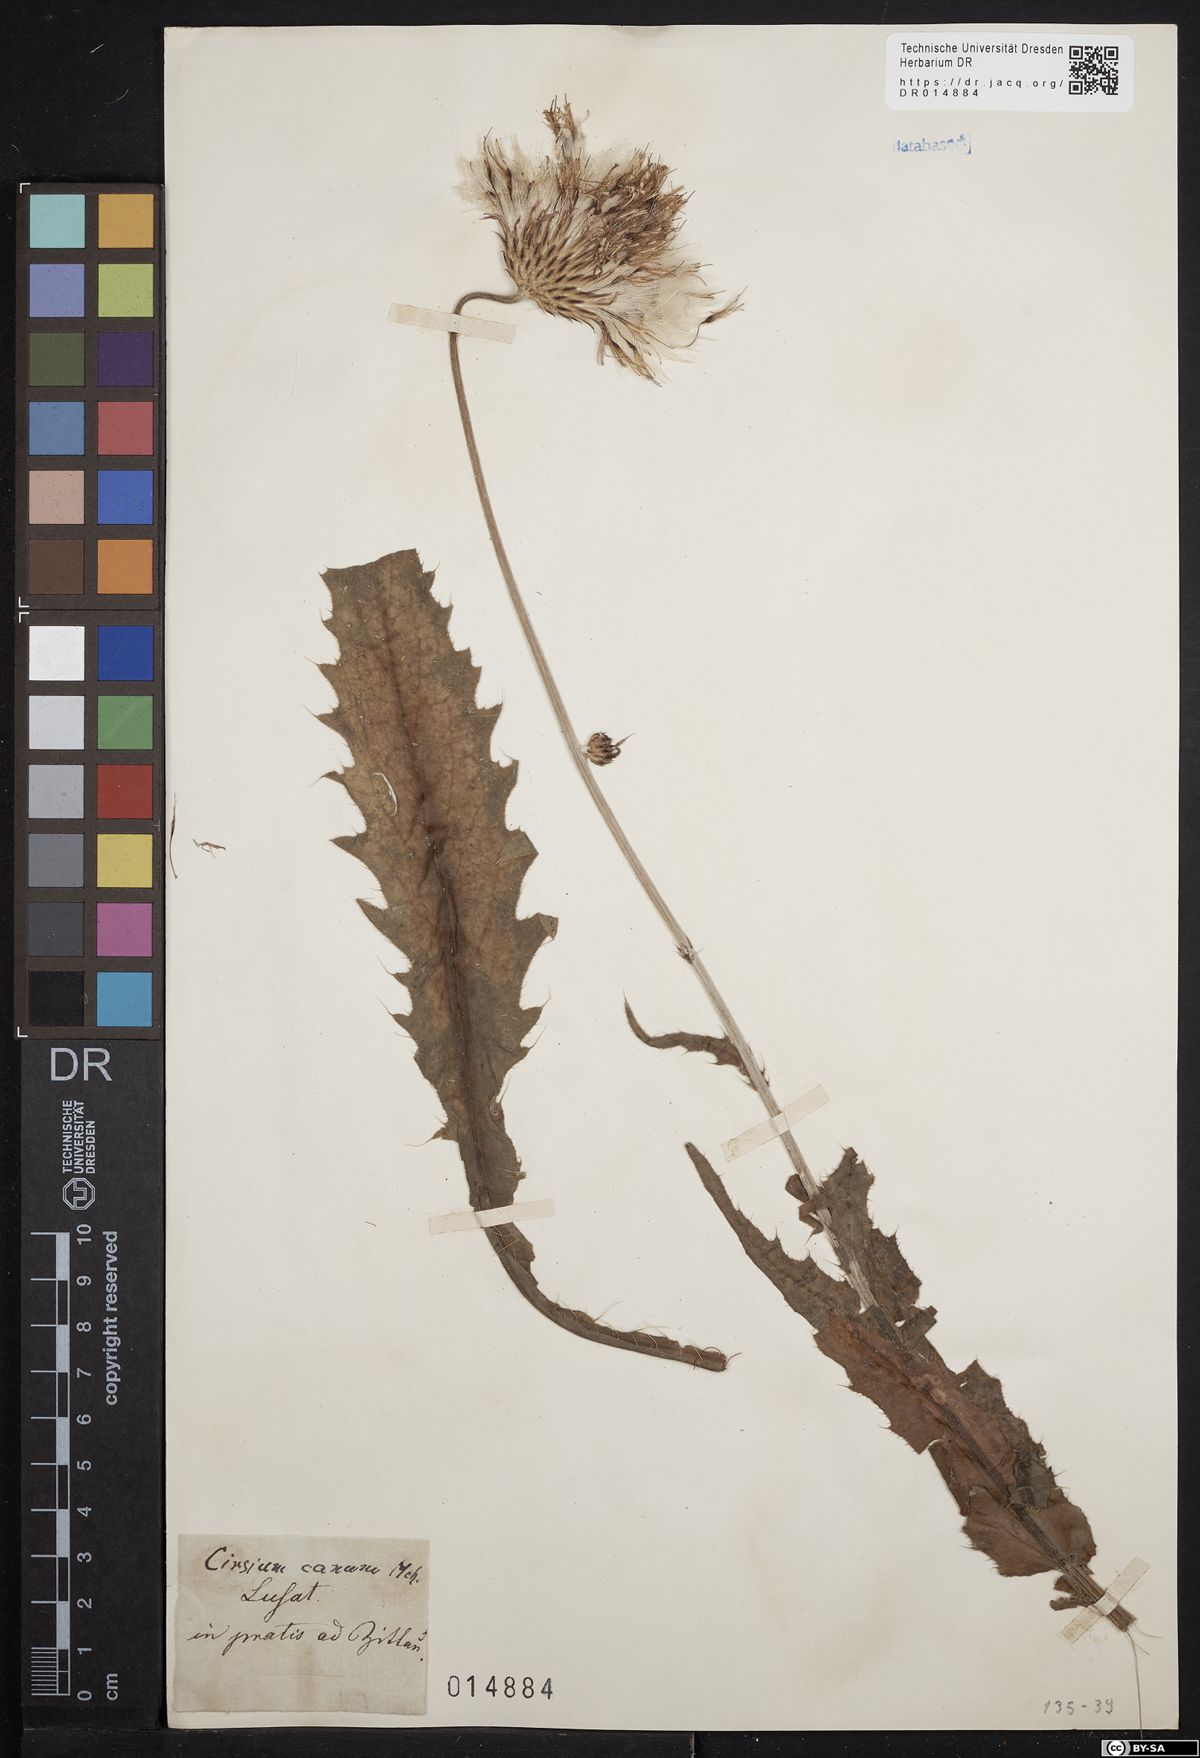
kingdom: Plantae
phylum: Tracheophyta
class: Magnoliopsida
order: Asterales
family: Asteraceae
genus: Cirsium
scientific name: Cirsium canum
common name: Queen anne's thistle
